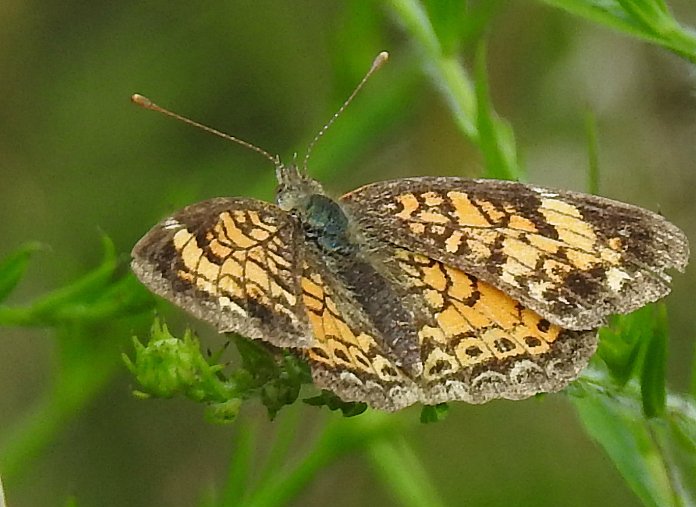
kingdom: Animalia
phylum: Arthropoda
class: Insecta
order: Lepidoptera
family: Nymphalidae
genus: Phyciodes
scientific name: Phyciodes tharos
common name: Pearl Crescent
